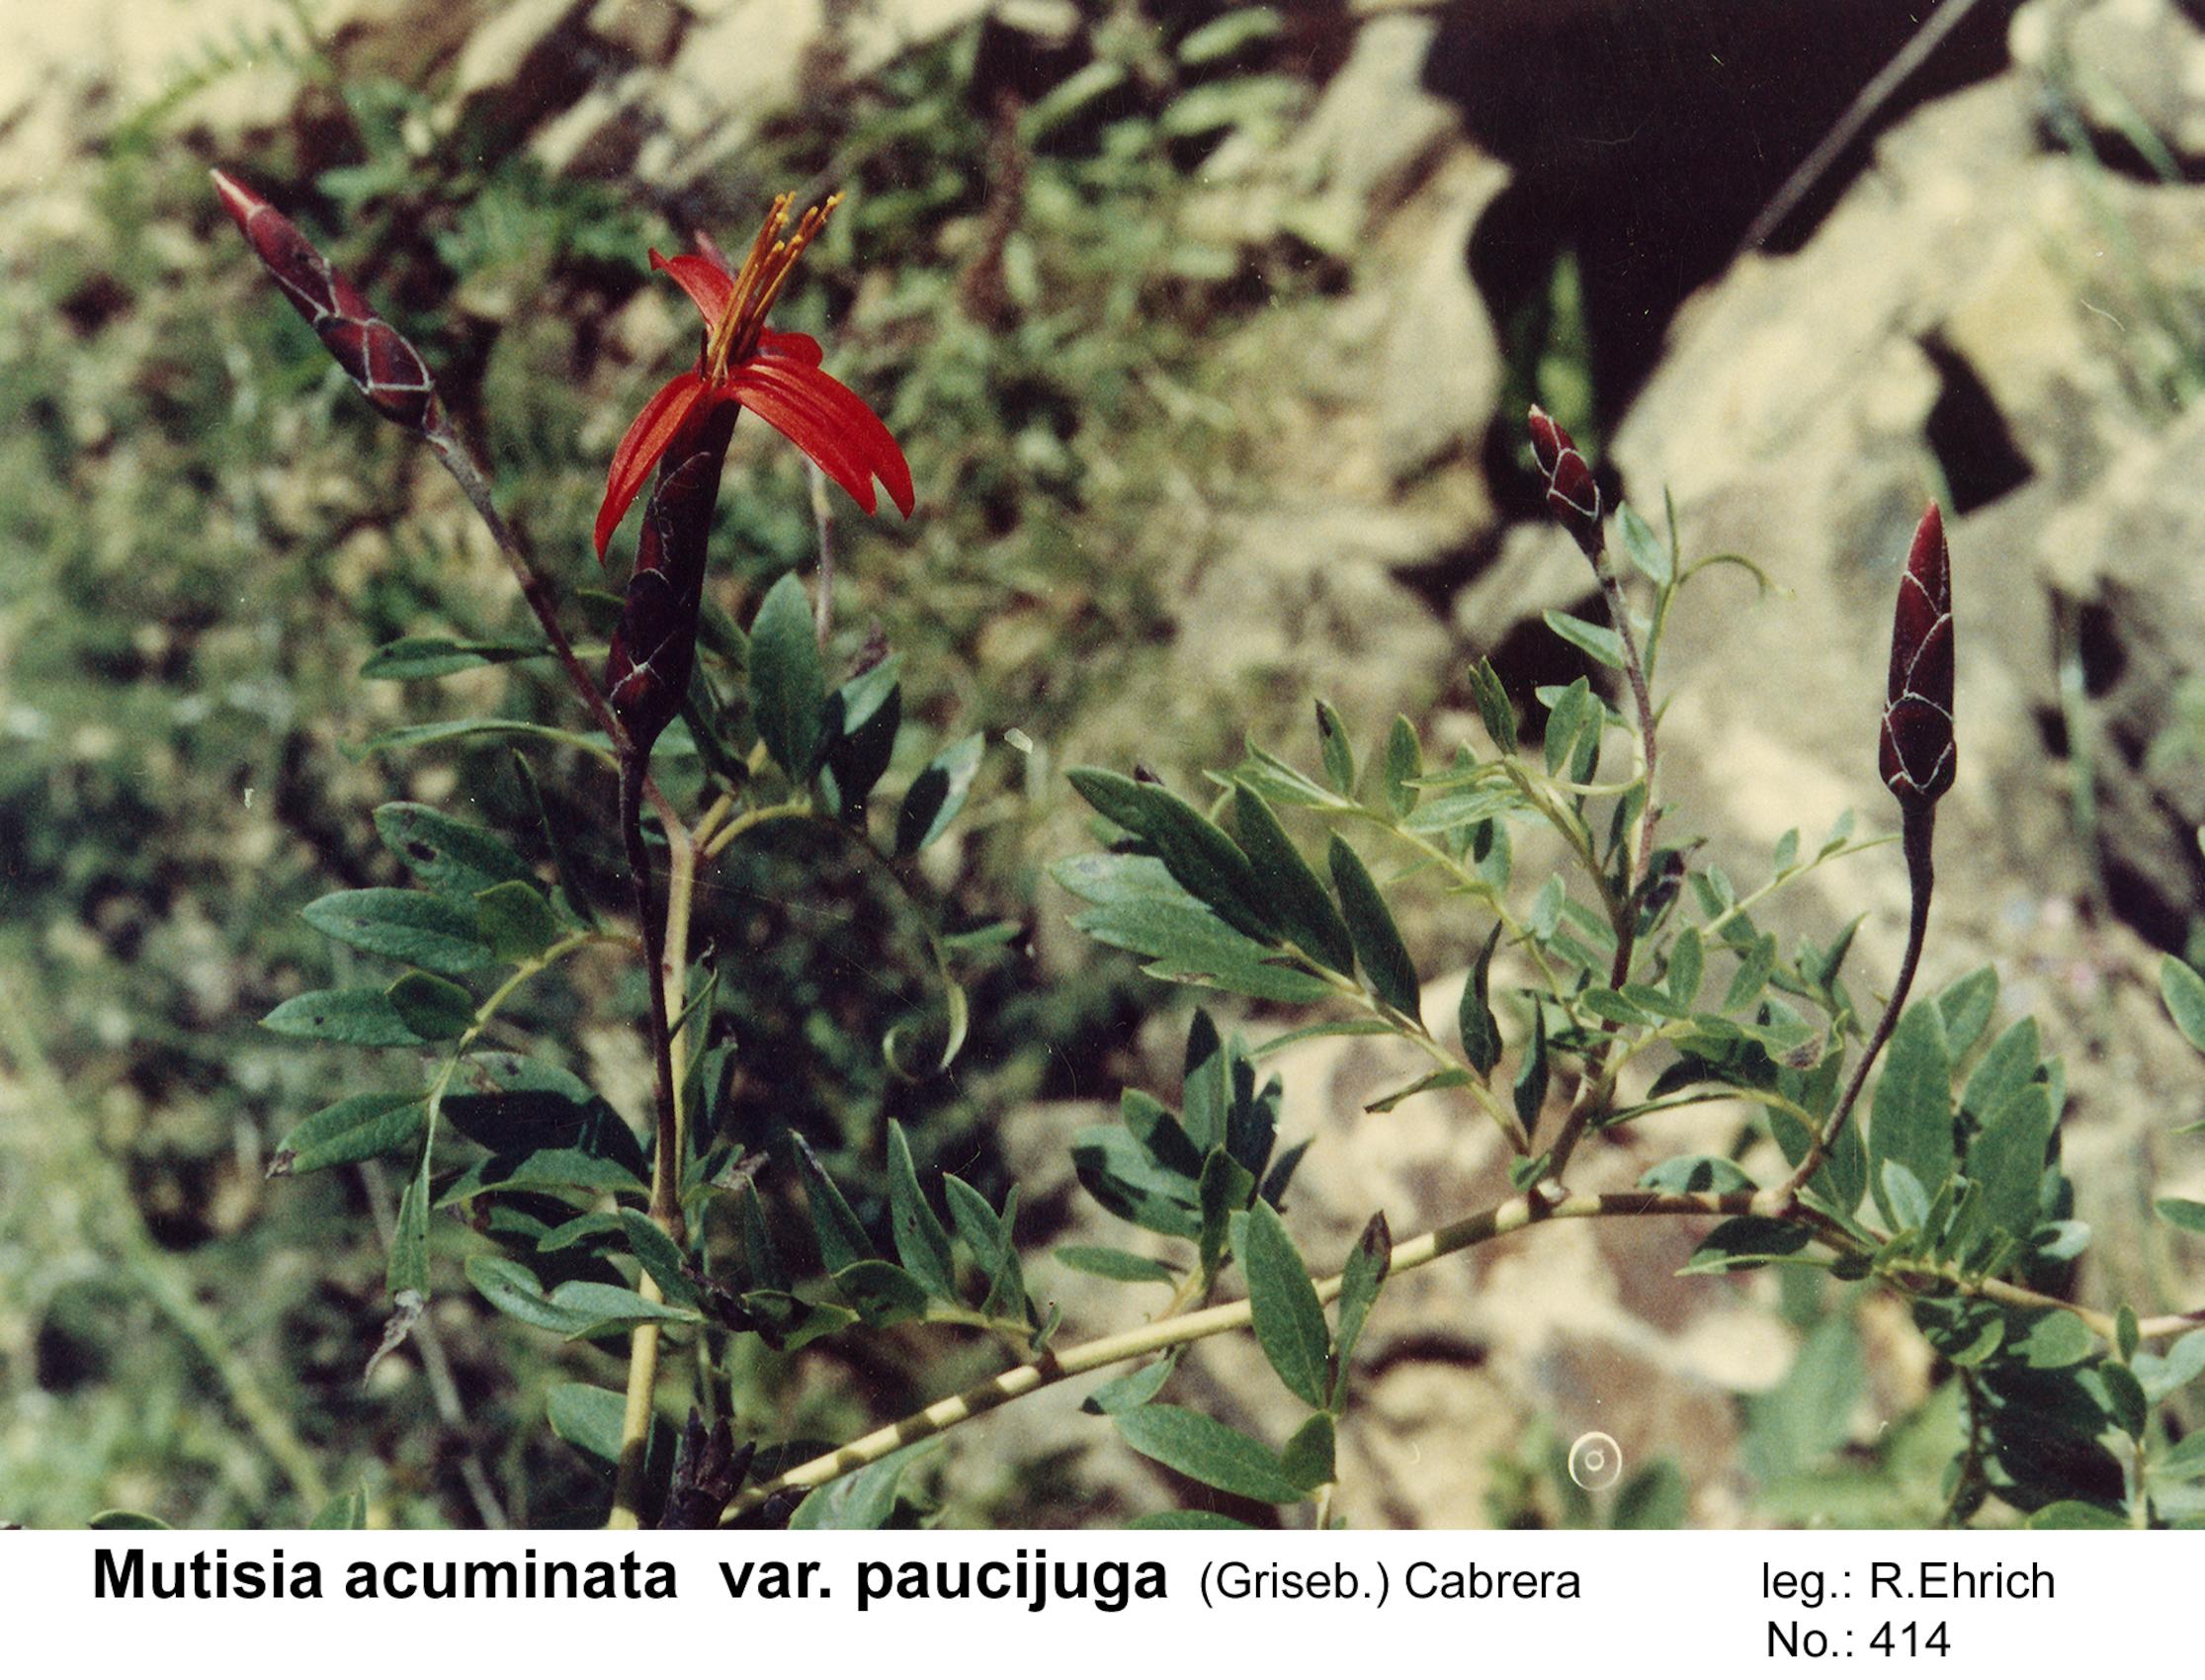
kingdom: Plantae
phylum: Tracheophyta
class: Magnoliopsida
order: Asterales
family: Asteraceae
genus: Mutisia
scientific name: Mutisia acuminata
